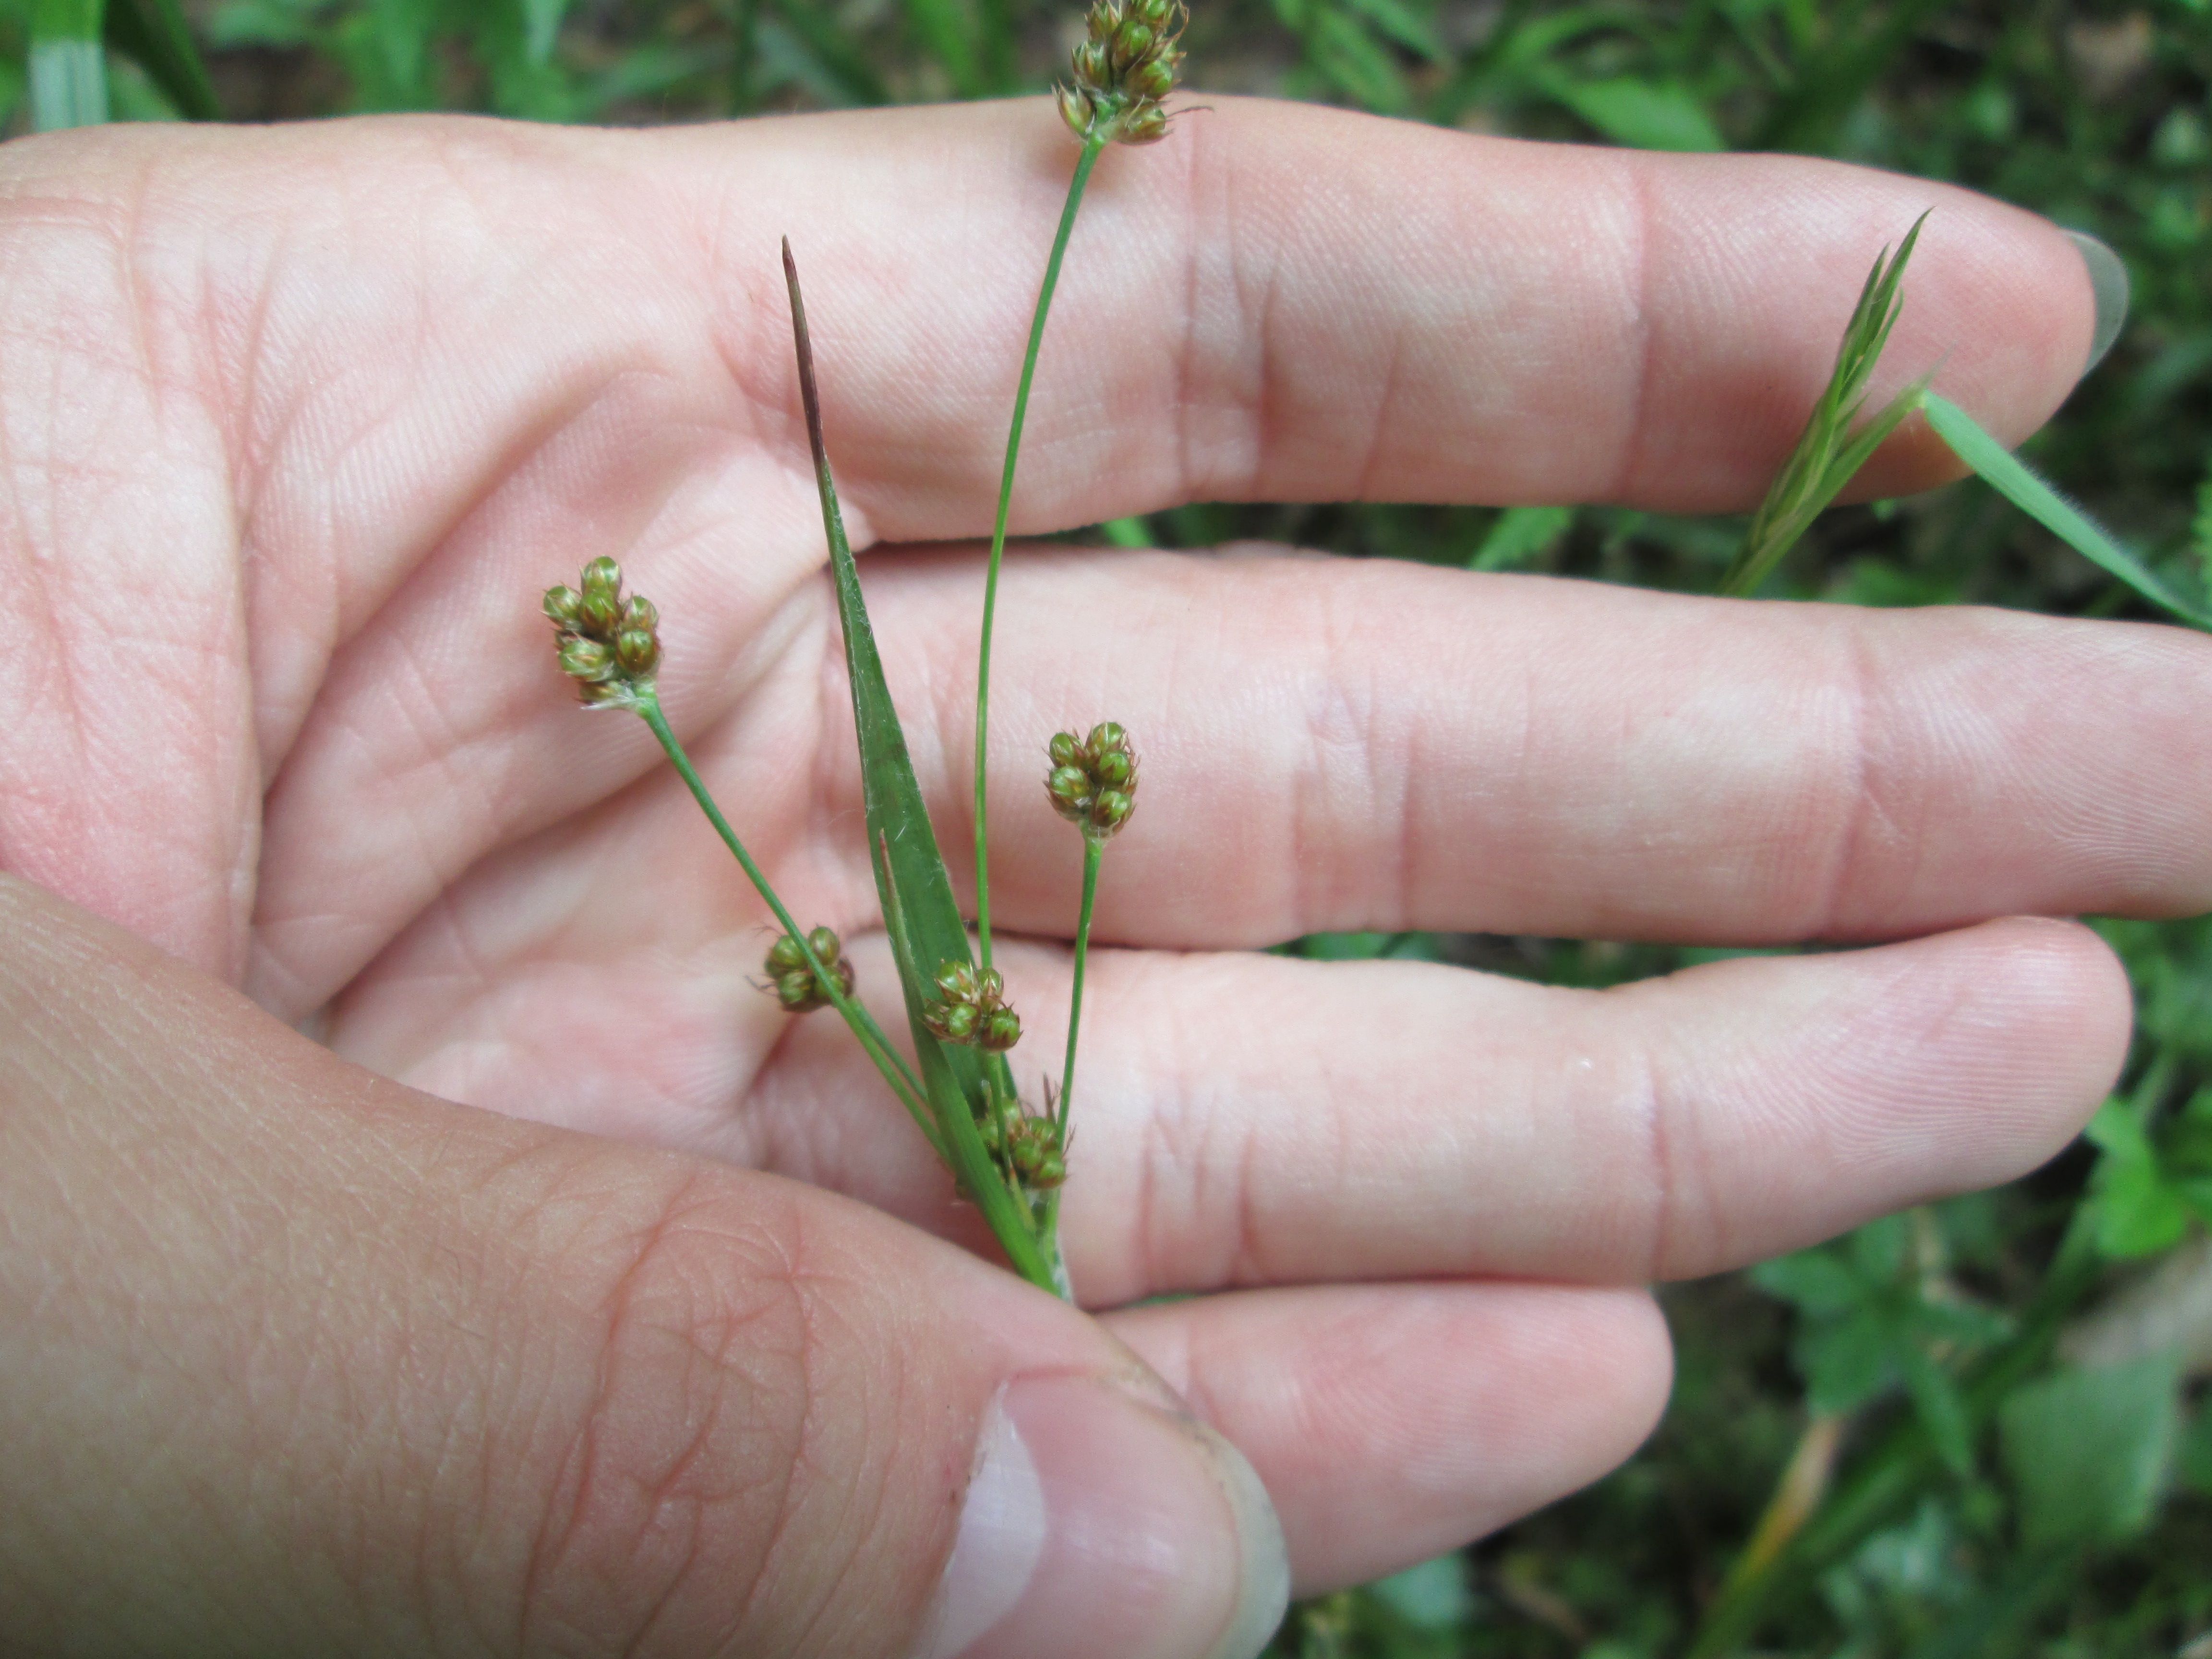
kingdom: Plantae
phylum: Tracheophyta
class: Liliopsida
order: Poales
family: Juncaceae
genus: Luzula
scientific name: Luzula multiflora
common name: Heath wood-rush
